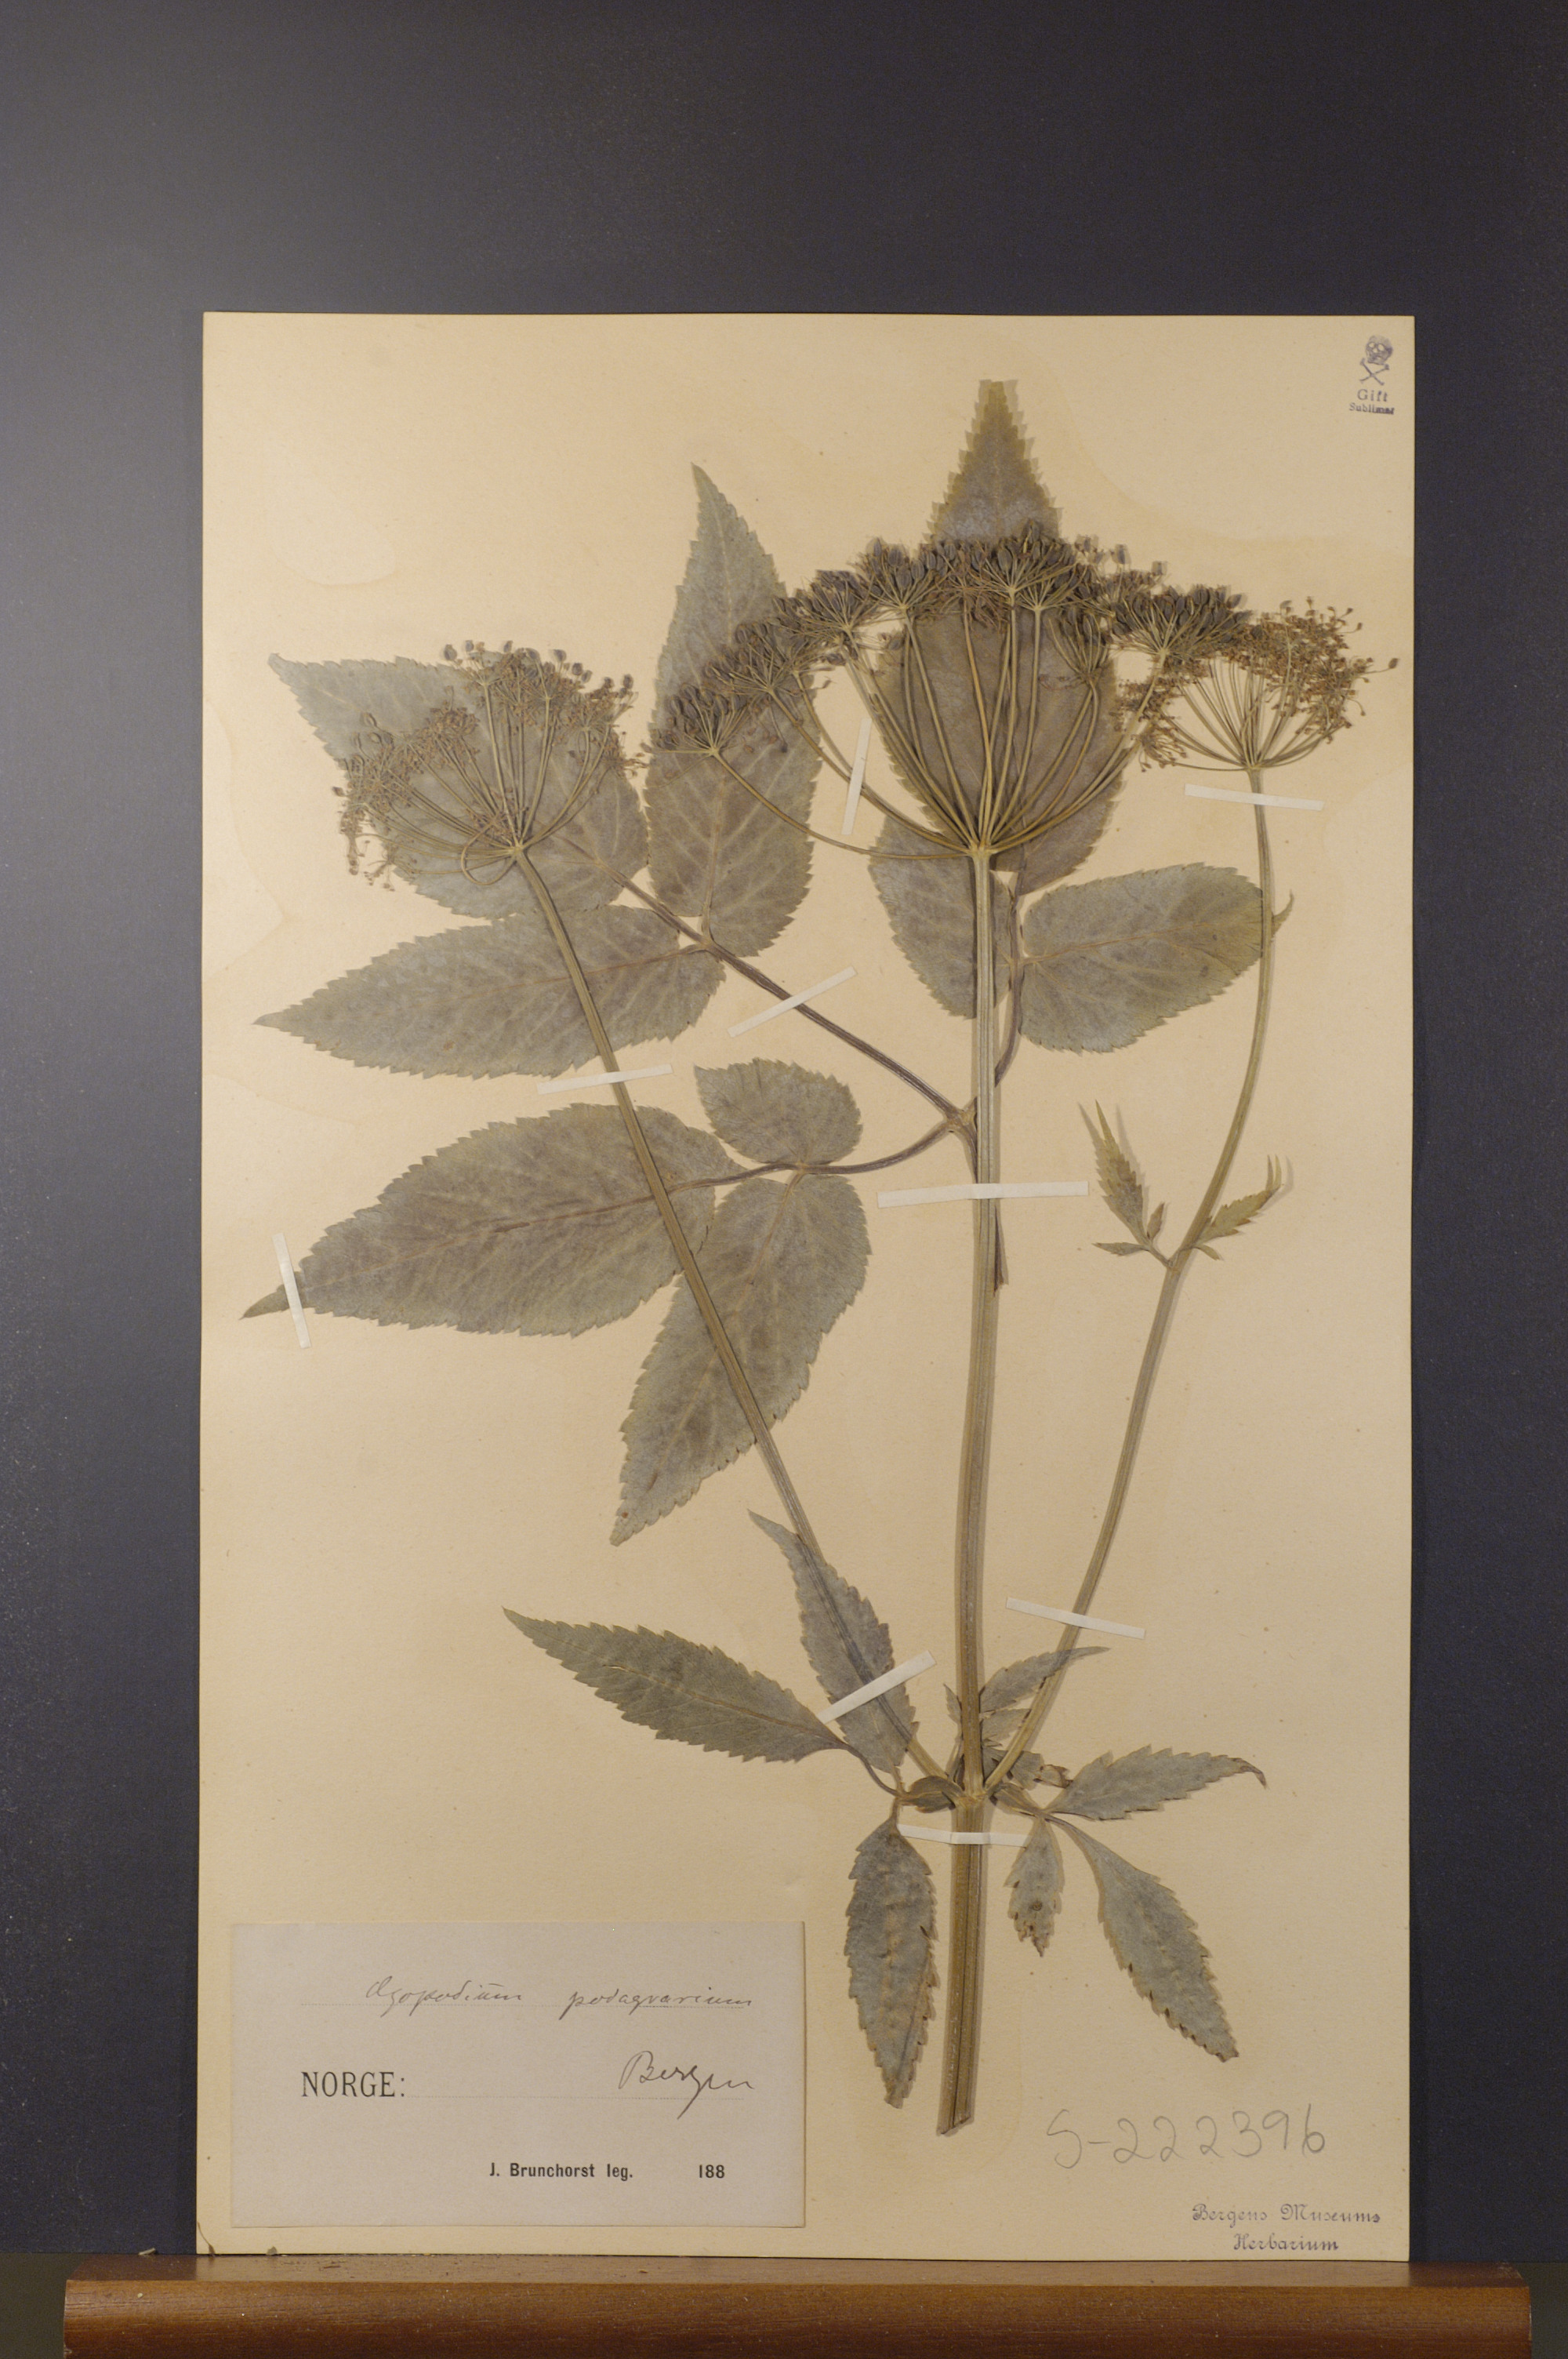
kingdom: Plantae
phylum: Tracheophyta
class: Magnoliopsida
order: Apiales
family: Apiaceae
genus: Aegopodium
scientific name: Aegopodium podagraria
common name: Ground-elder
